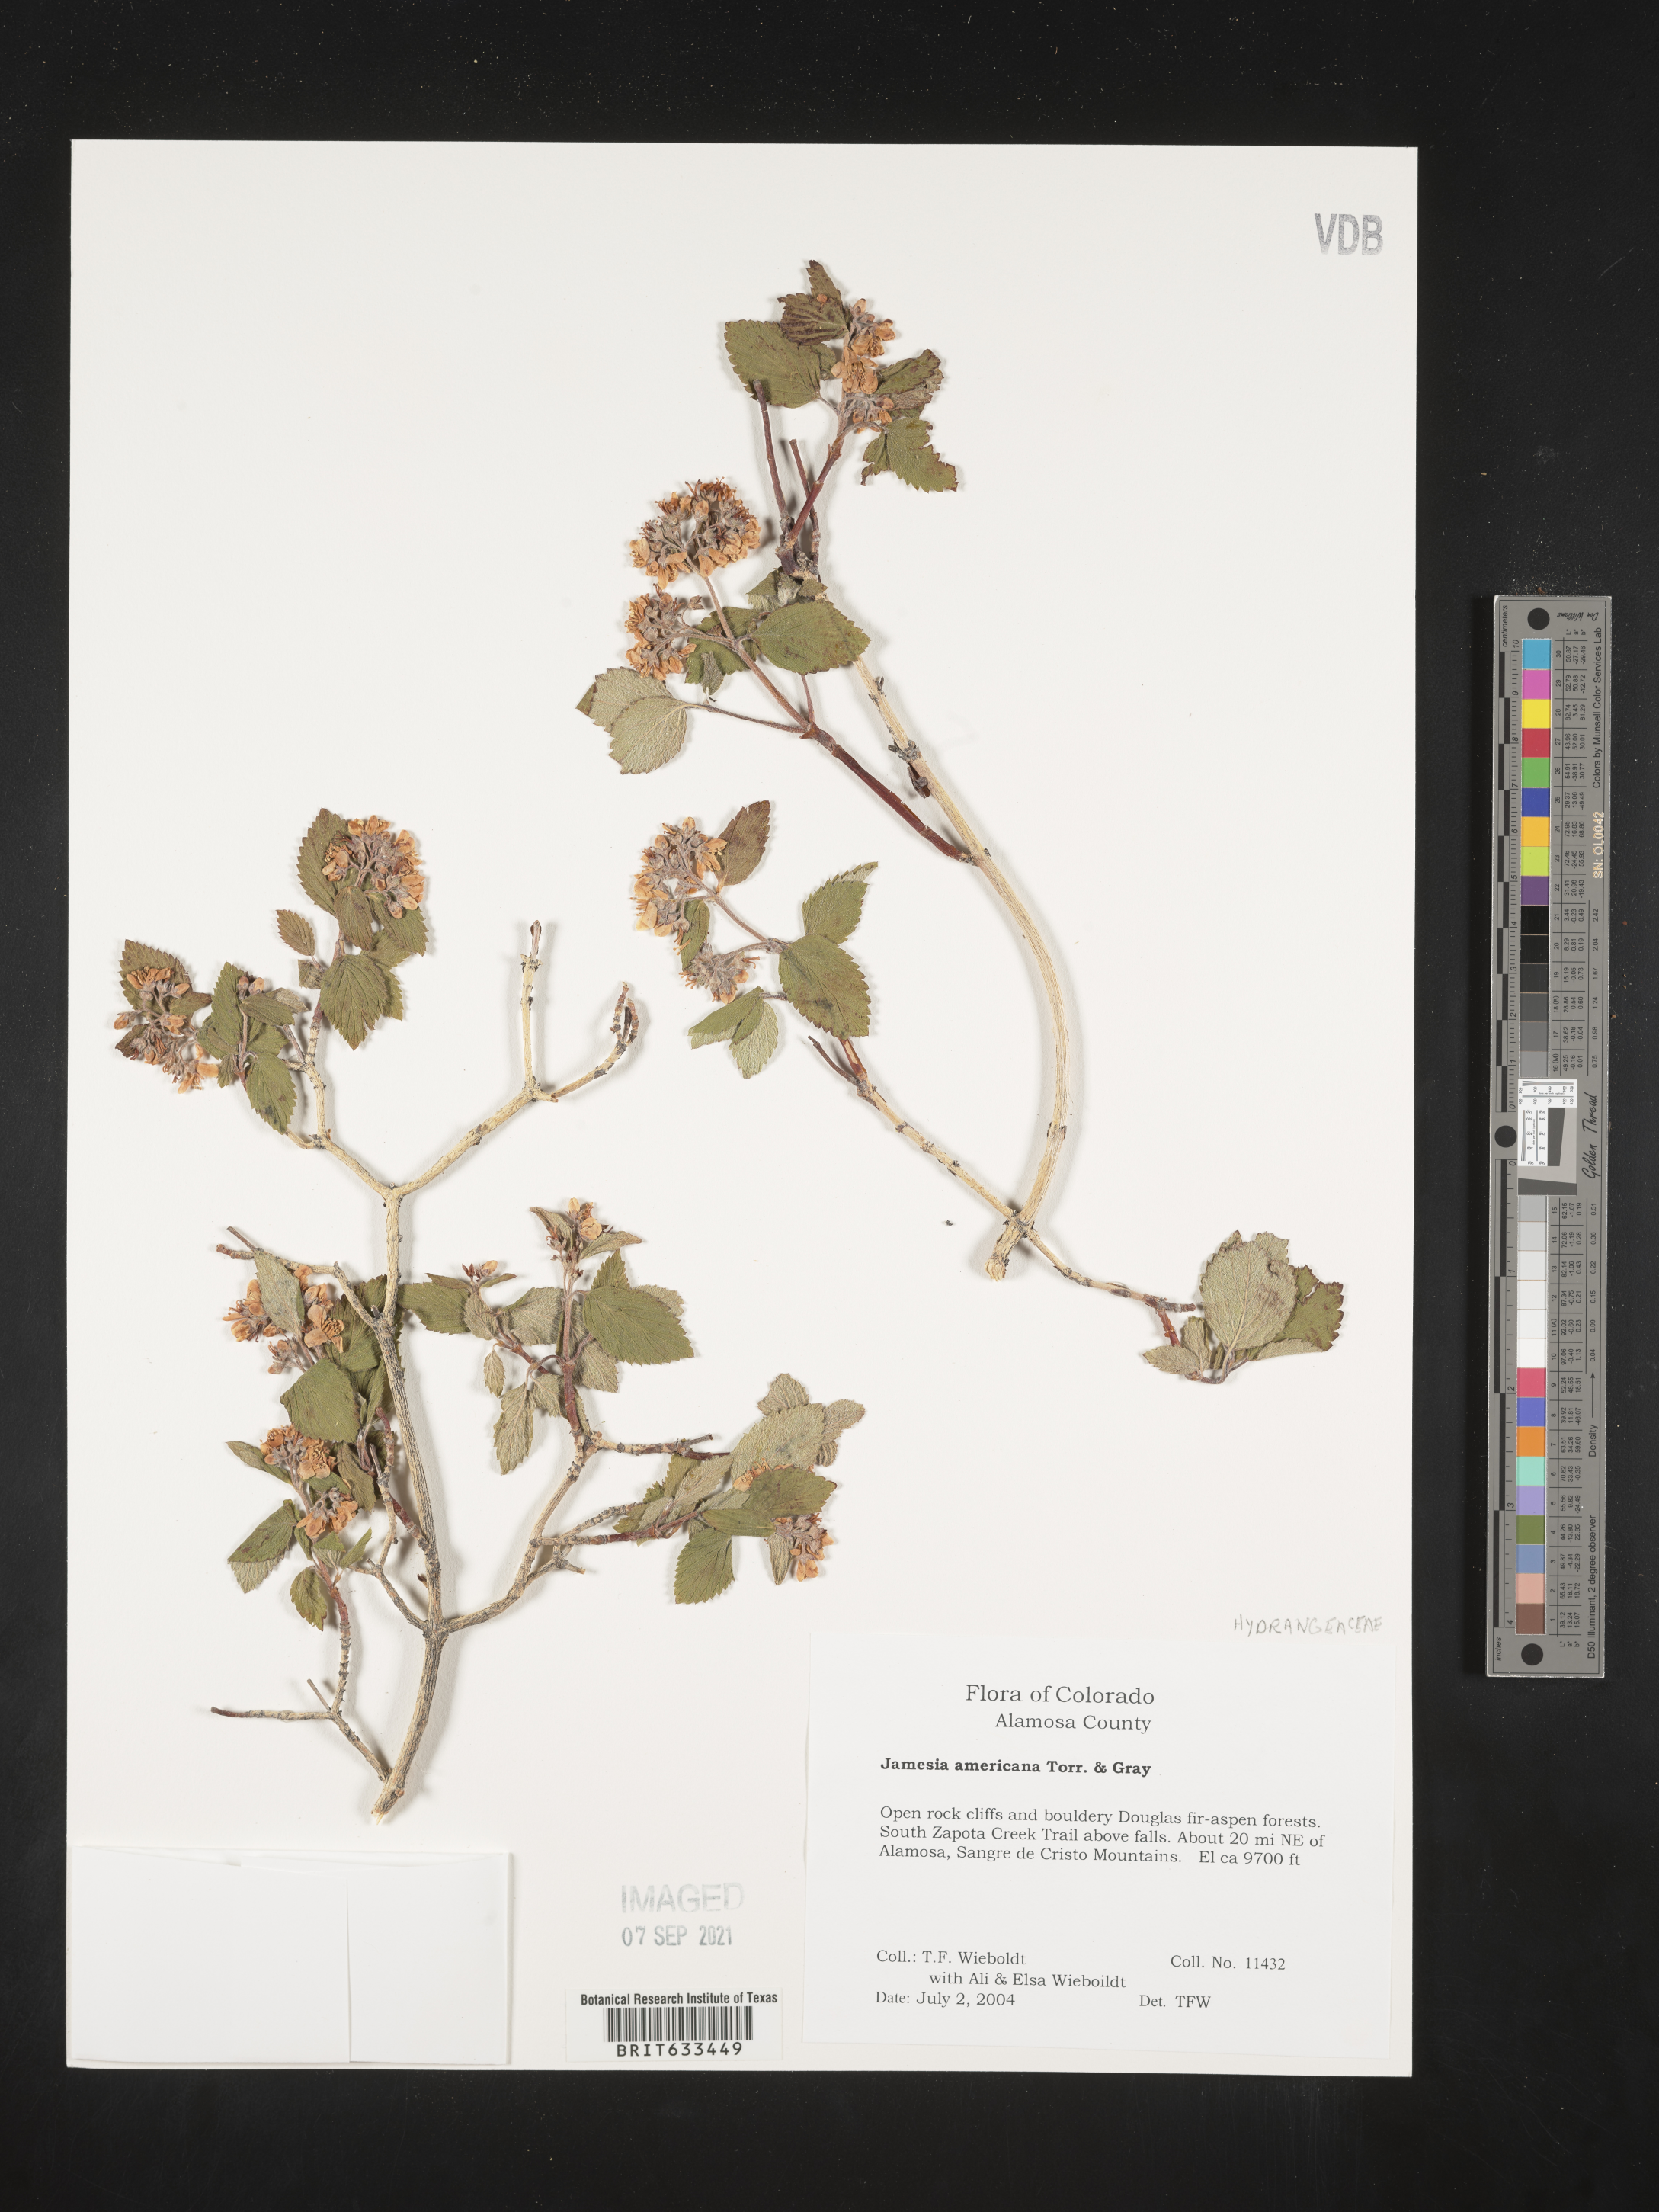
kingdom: Plantae
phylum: Tracheophyta
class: Magnoliopsida
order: Cornales
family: Hydrangeaceae
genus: Jamesia
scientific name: Jamesia americana
